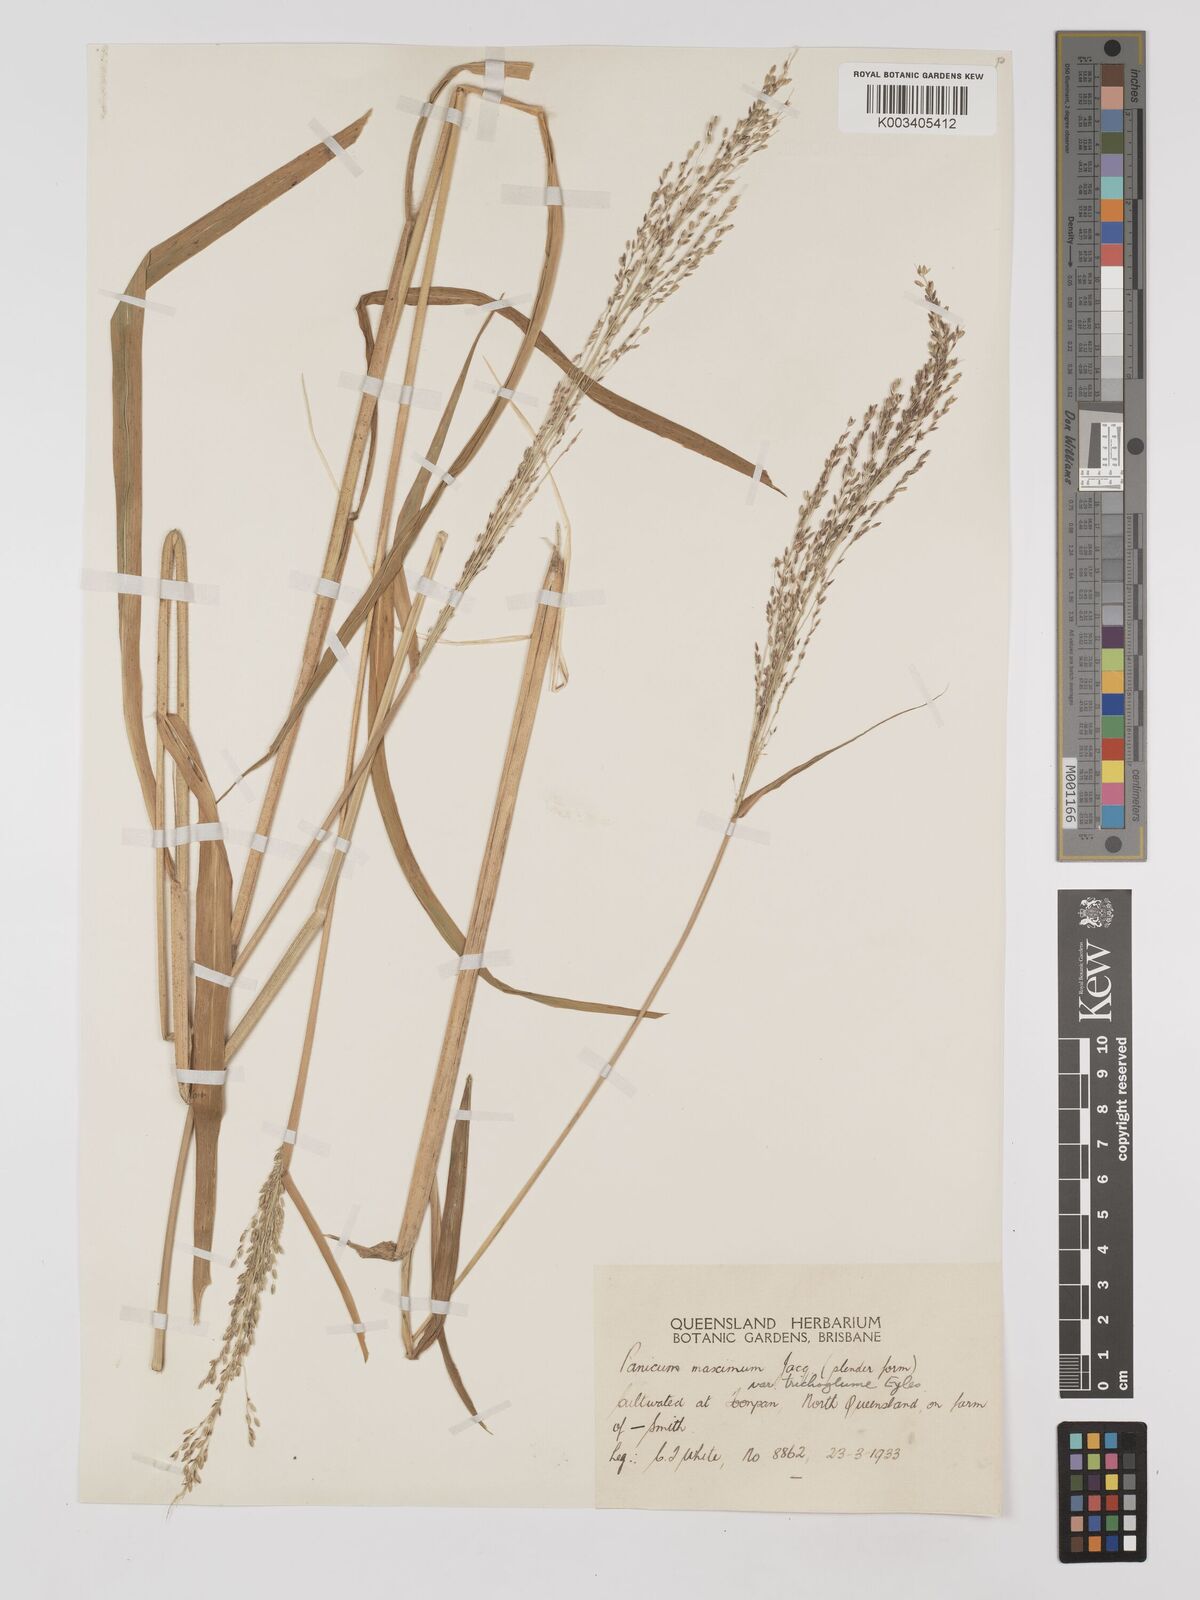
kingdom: Plantae
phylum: Tracheophyta
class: Liliopsida
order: Poales
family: Poaceae
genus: Megathyrsus
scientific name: Megathyrsus maximus
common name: Guineagrass
